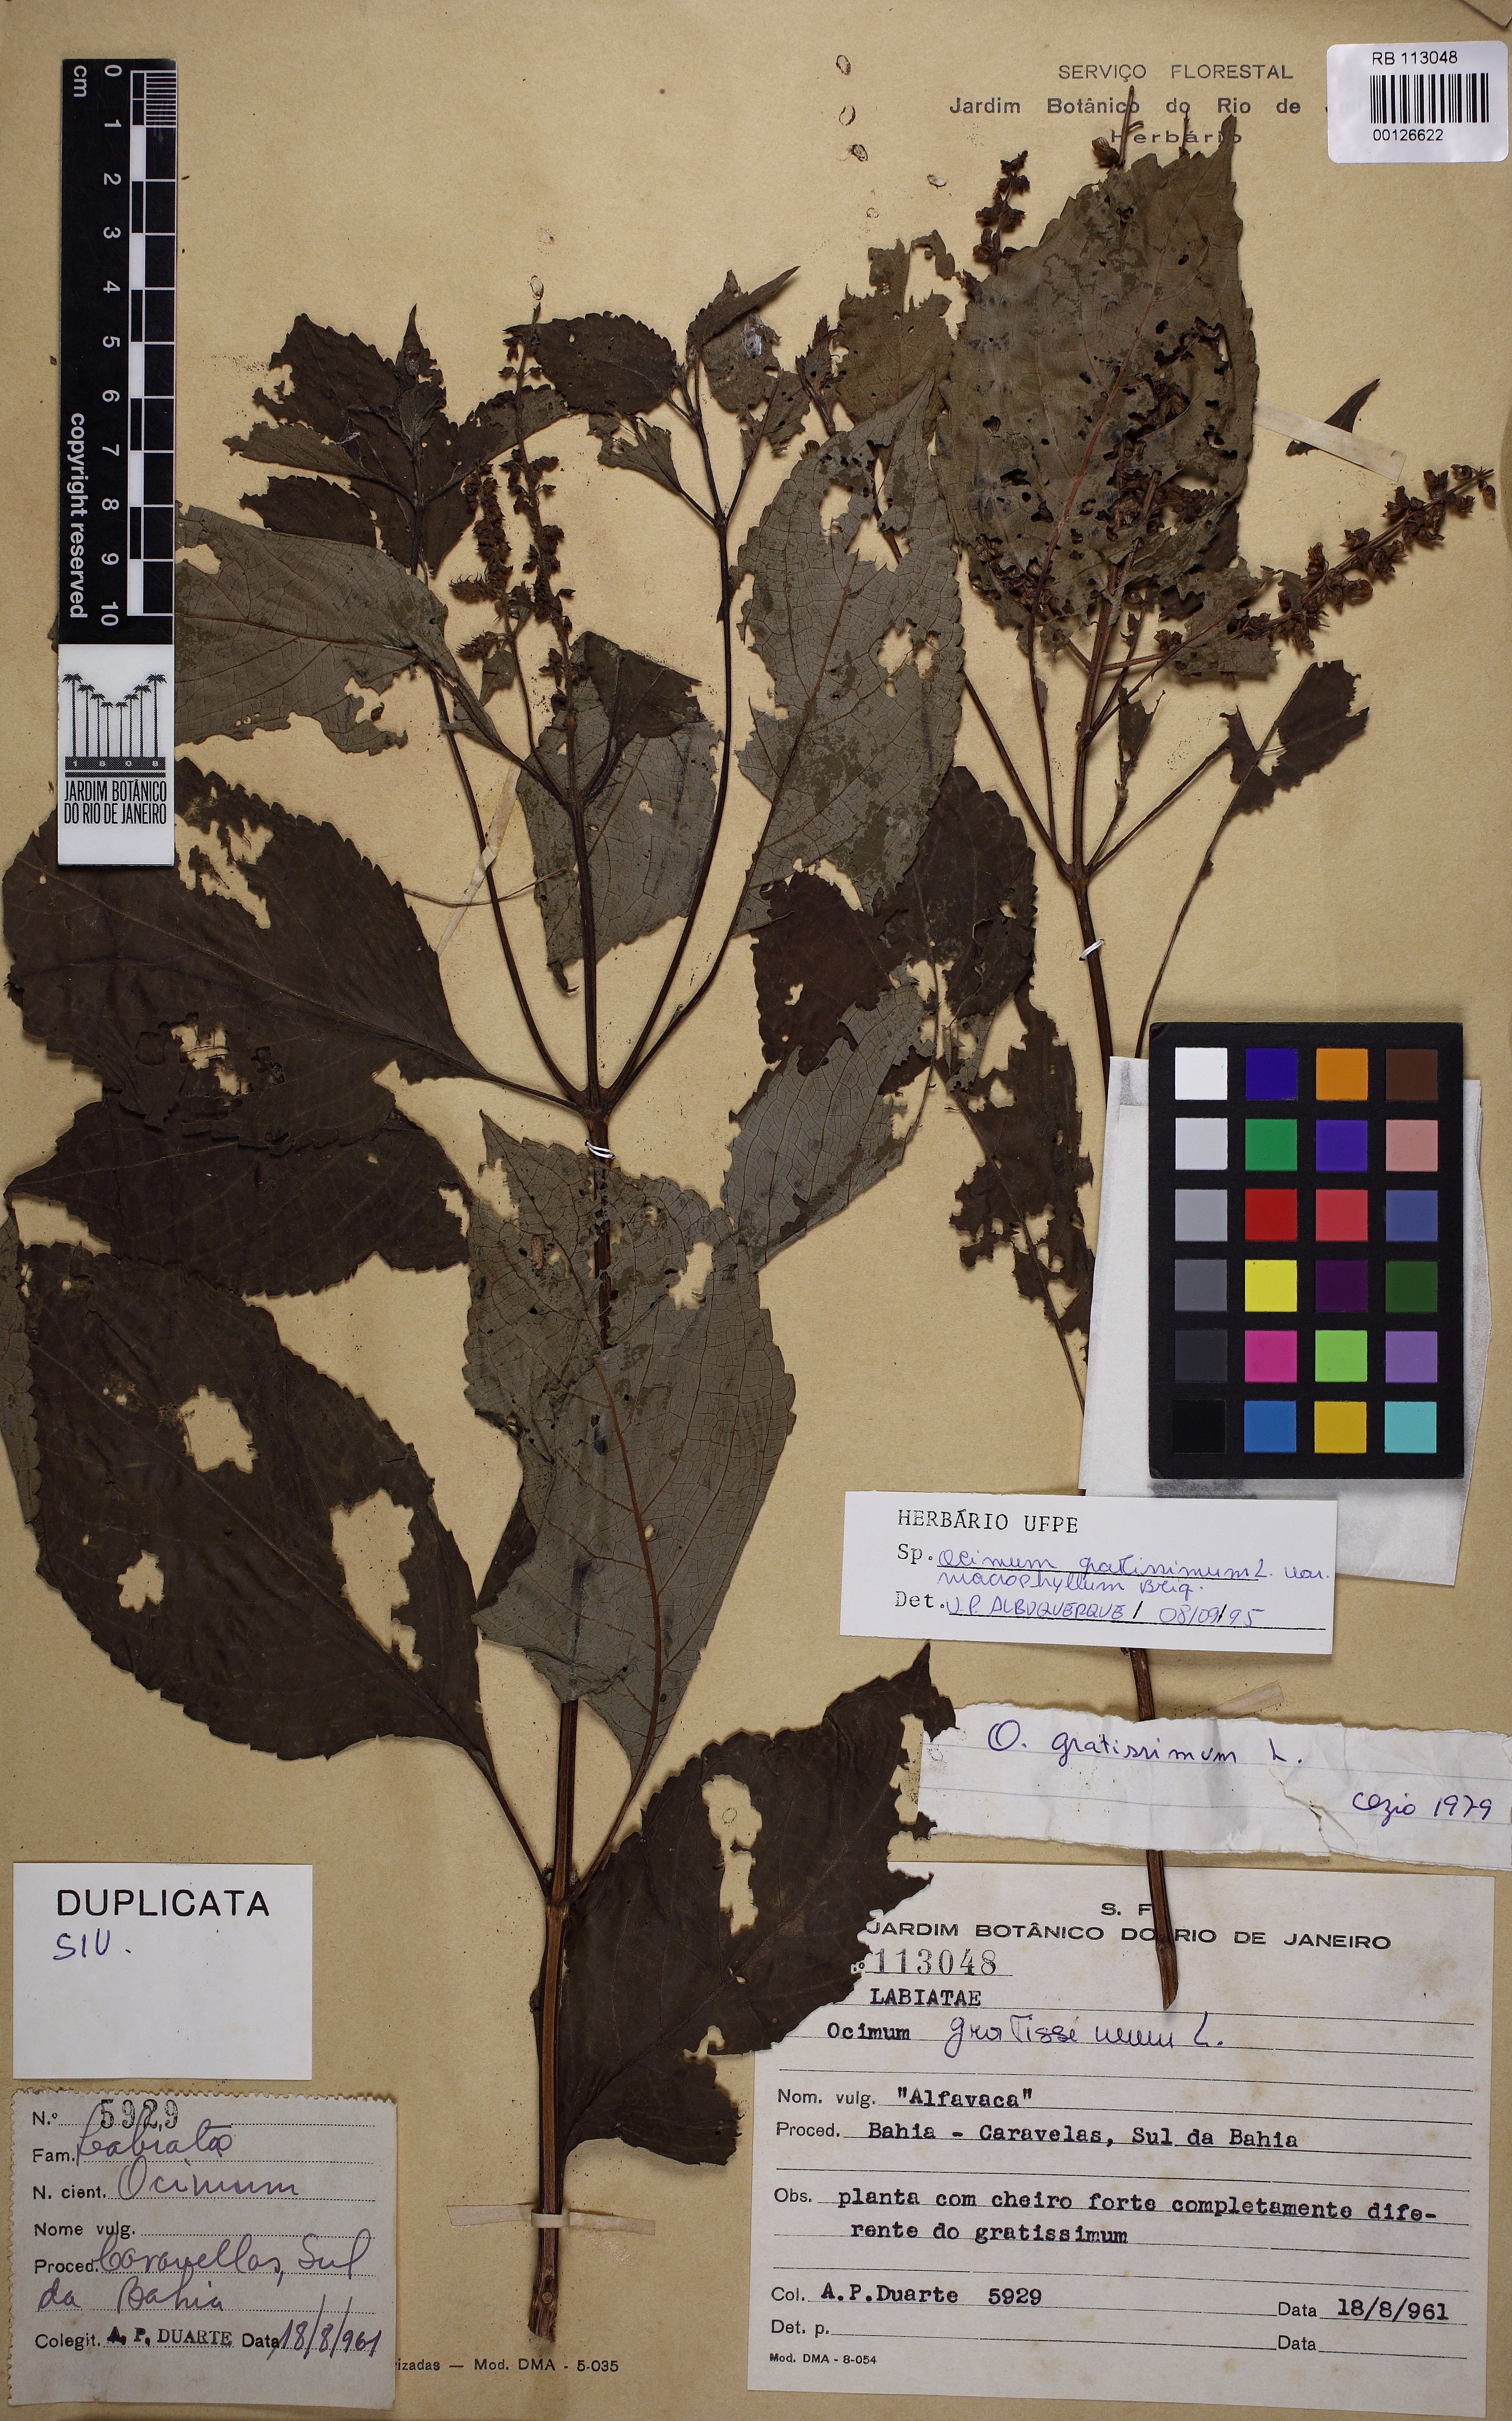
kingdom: Plantae
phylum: Tracheophyta
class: Magnoliopsida
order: Lamiales
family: Lamiaceae
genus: Ocimum
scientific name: Ocimum gratissimum
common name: African basil
